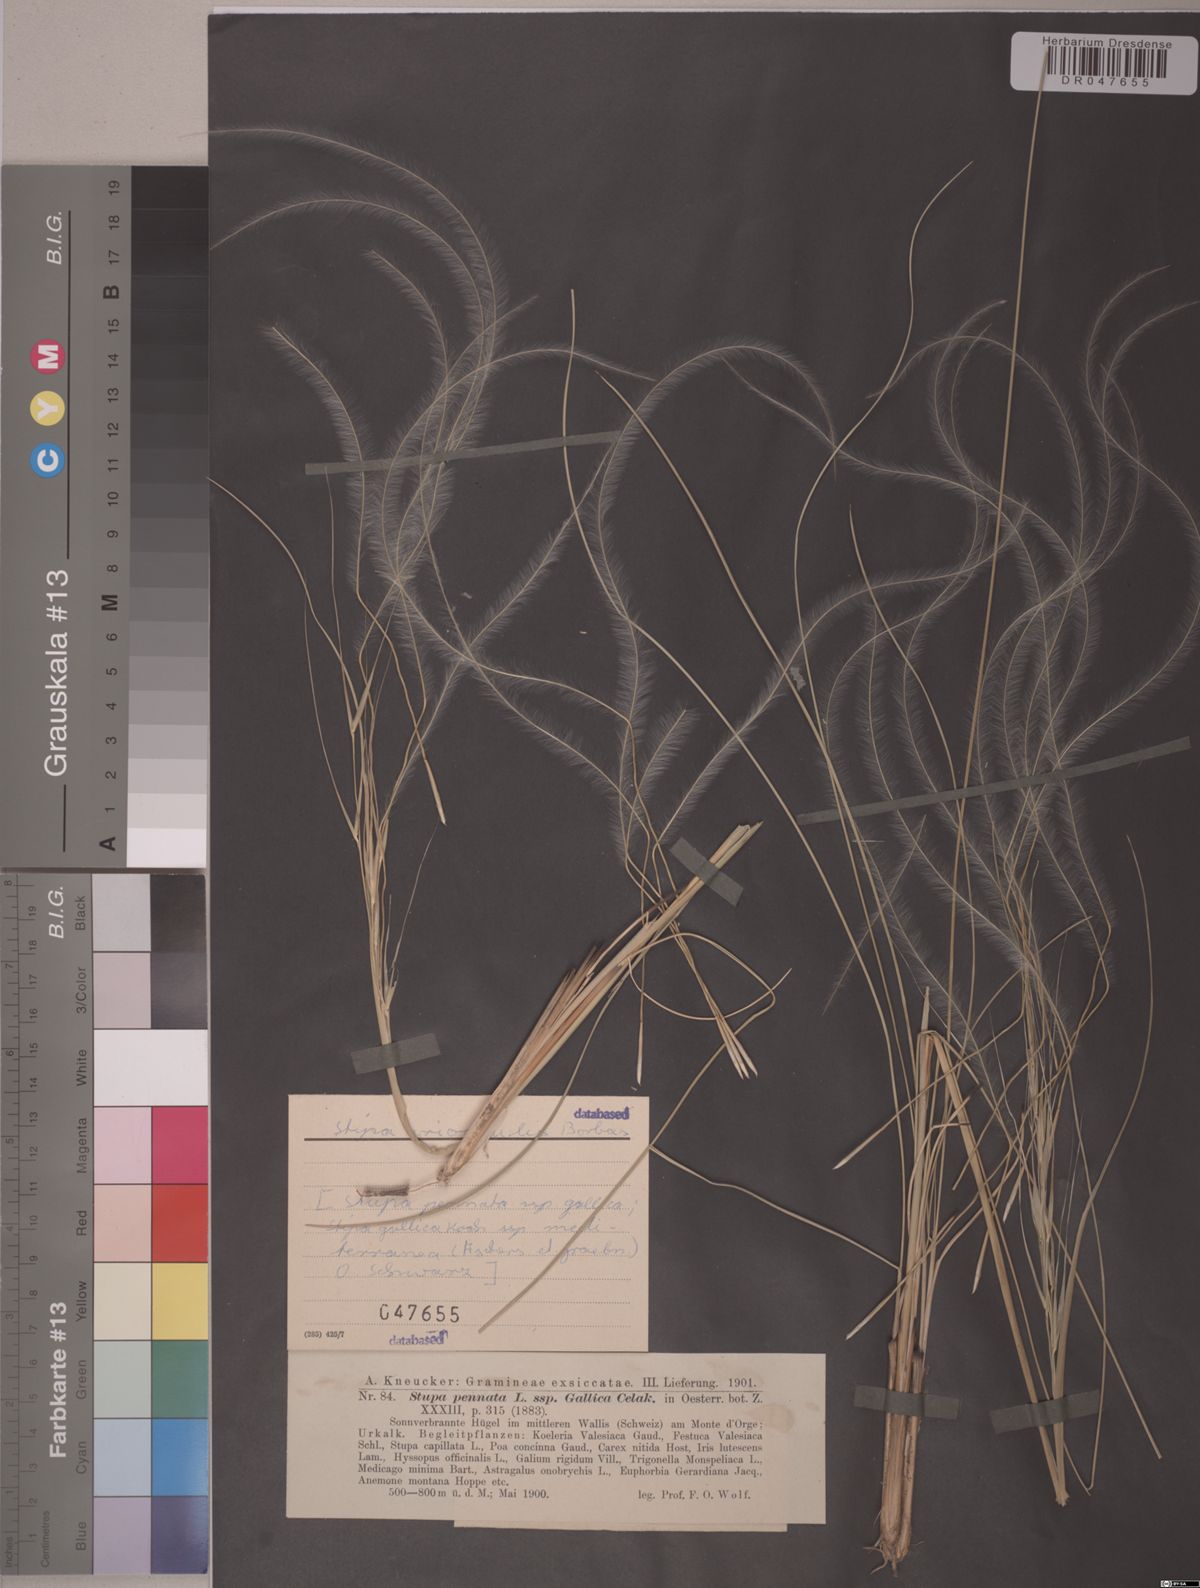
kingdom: Plantae
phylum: Tracheophyta
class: Liliopsida
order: Poales
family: Poaceae
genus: Stipa
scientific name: Stipa pennata
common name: European feather grass
